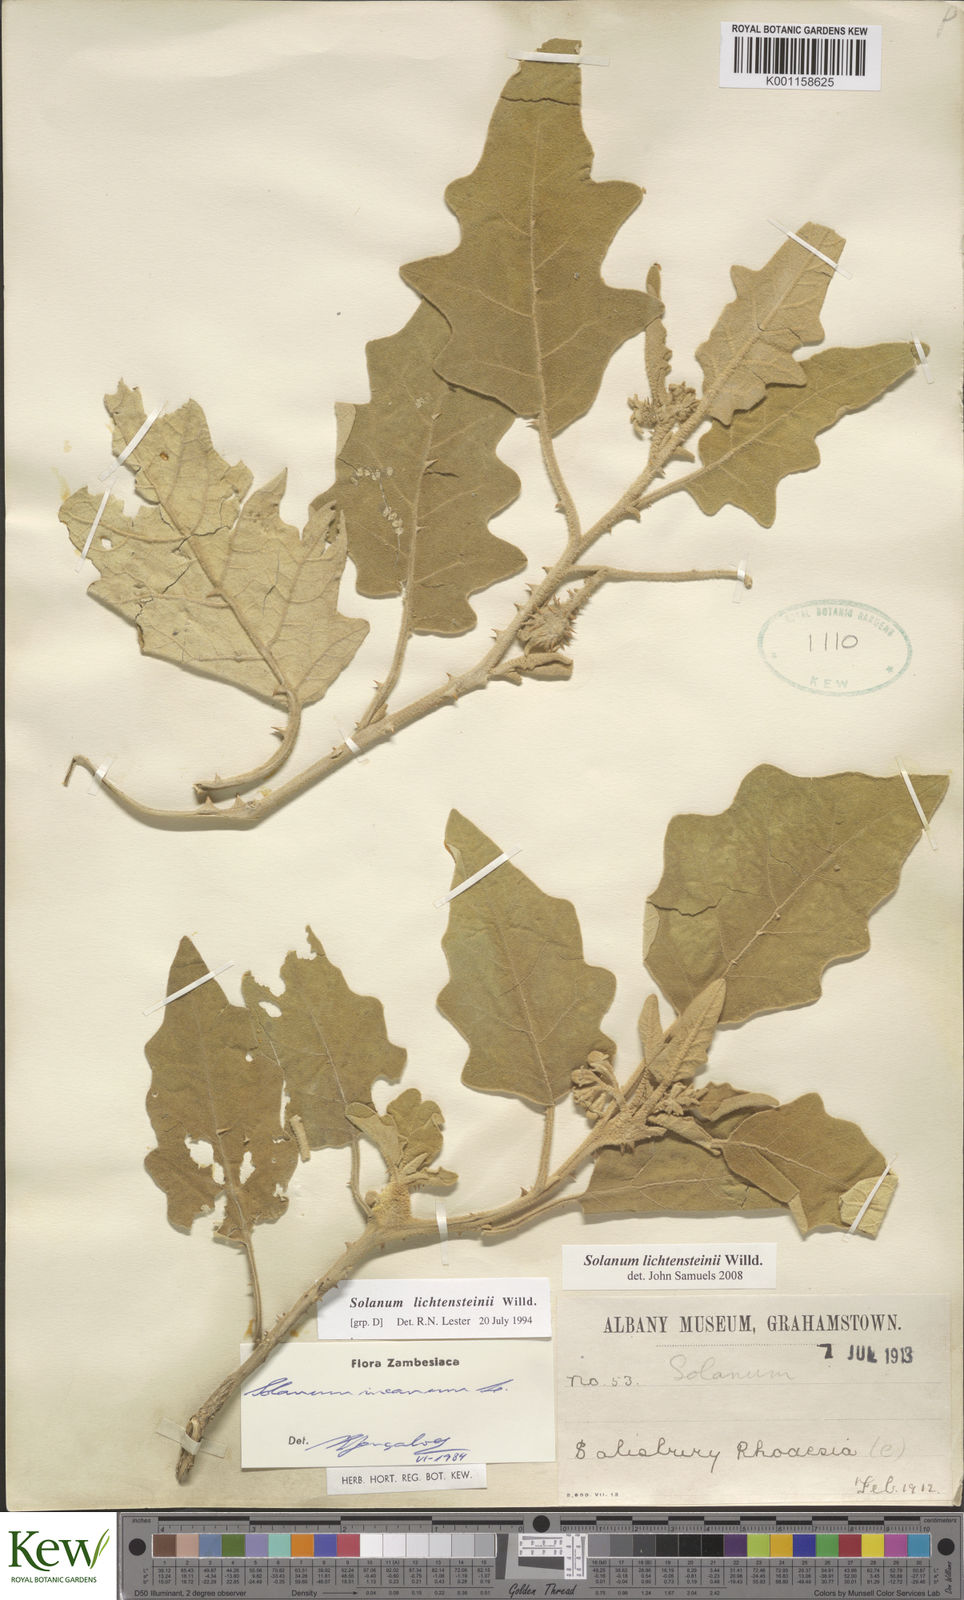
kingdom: Plantae
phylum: Tracheophyta
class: Magnoliopsida
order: Solanales
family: Solanaceae
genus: Solanum
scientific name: Solanum lichtensteinii
